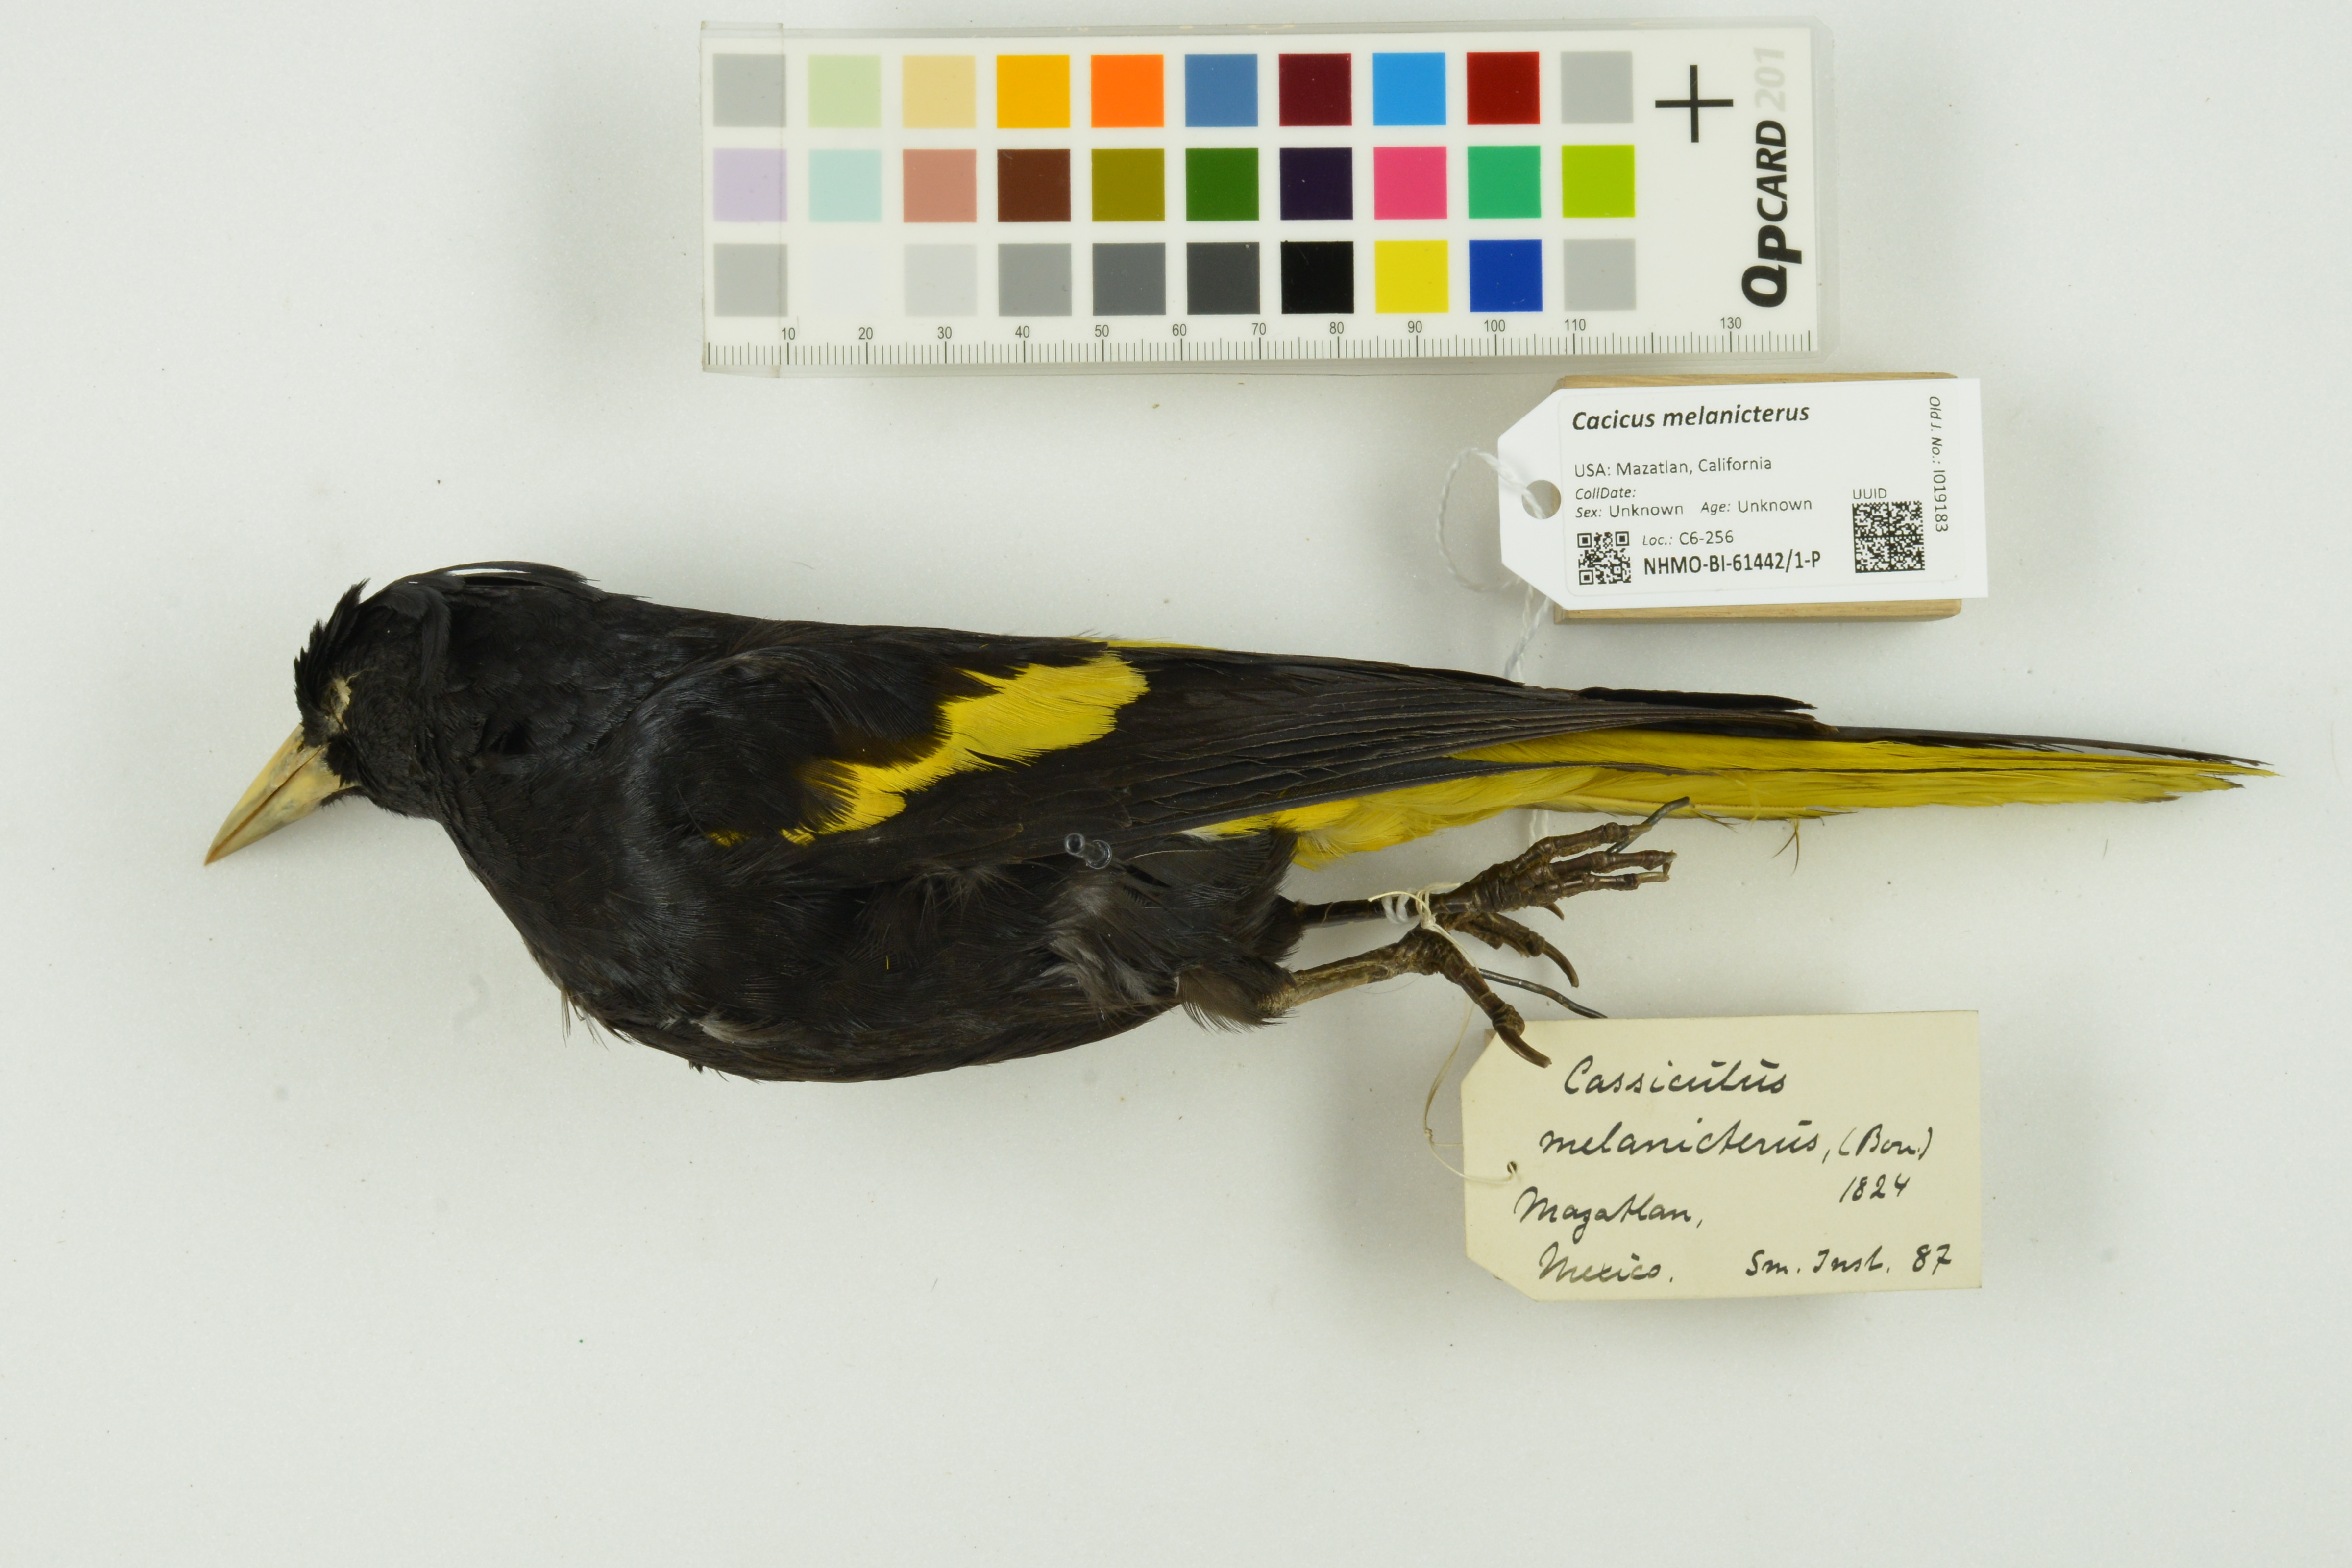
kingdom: Animalia
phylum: Chordata
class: Aves
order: Passeriformes
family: Icteridae
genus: Cacicus
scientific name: Cacicus melanicterus
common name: Yellow-winged cacique
